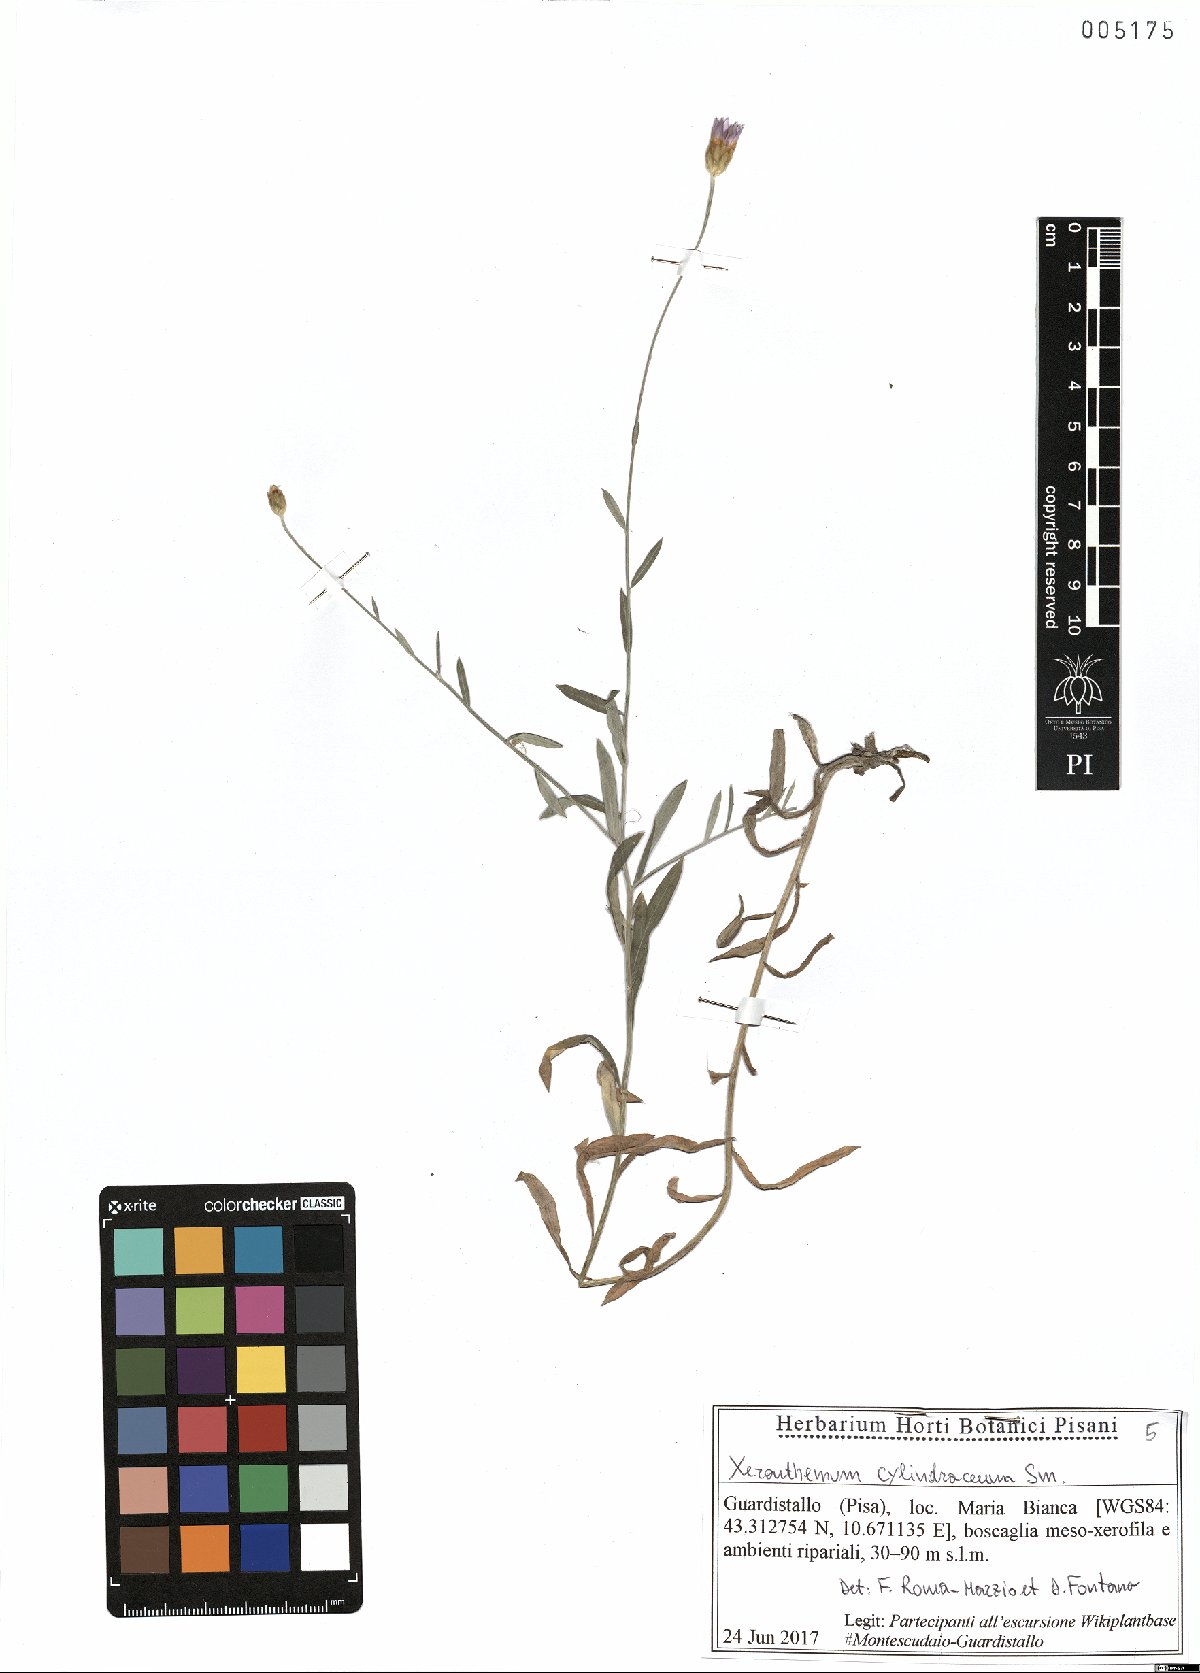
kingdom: Plantae
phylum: Tracheophyta
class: Magnoliopsida
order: Asterales
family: Asteraceae
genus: Xeranthemum
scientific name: Xeranthemum cylindraceum
